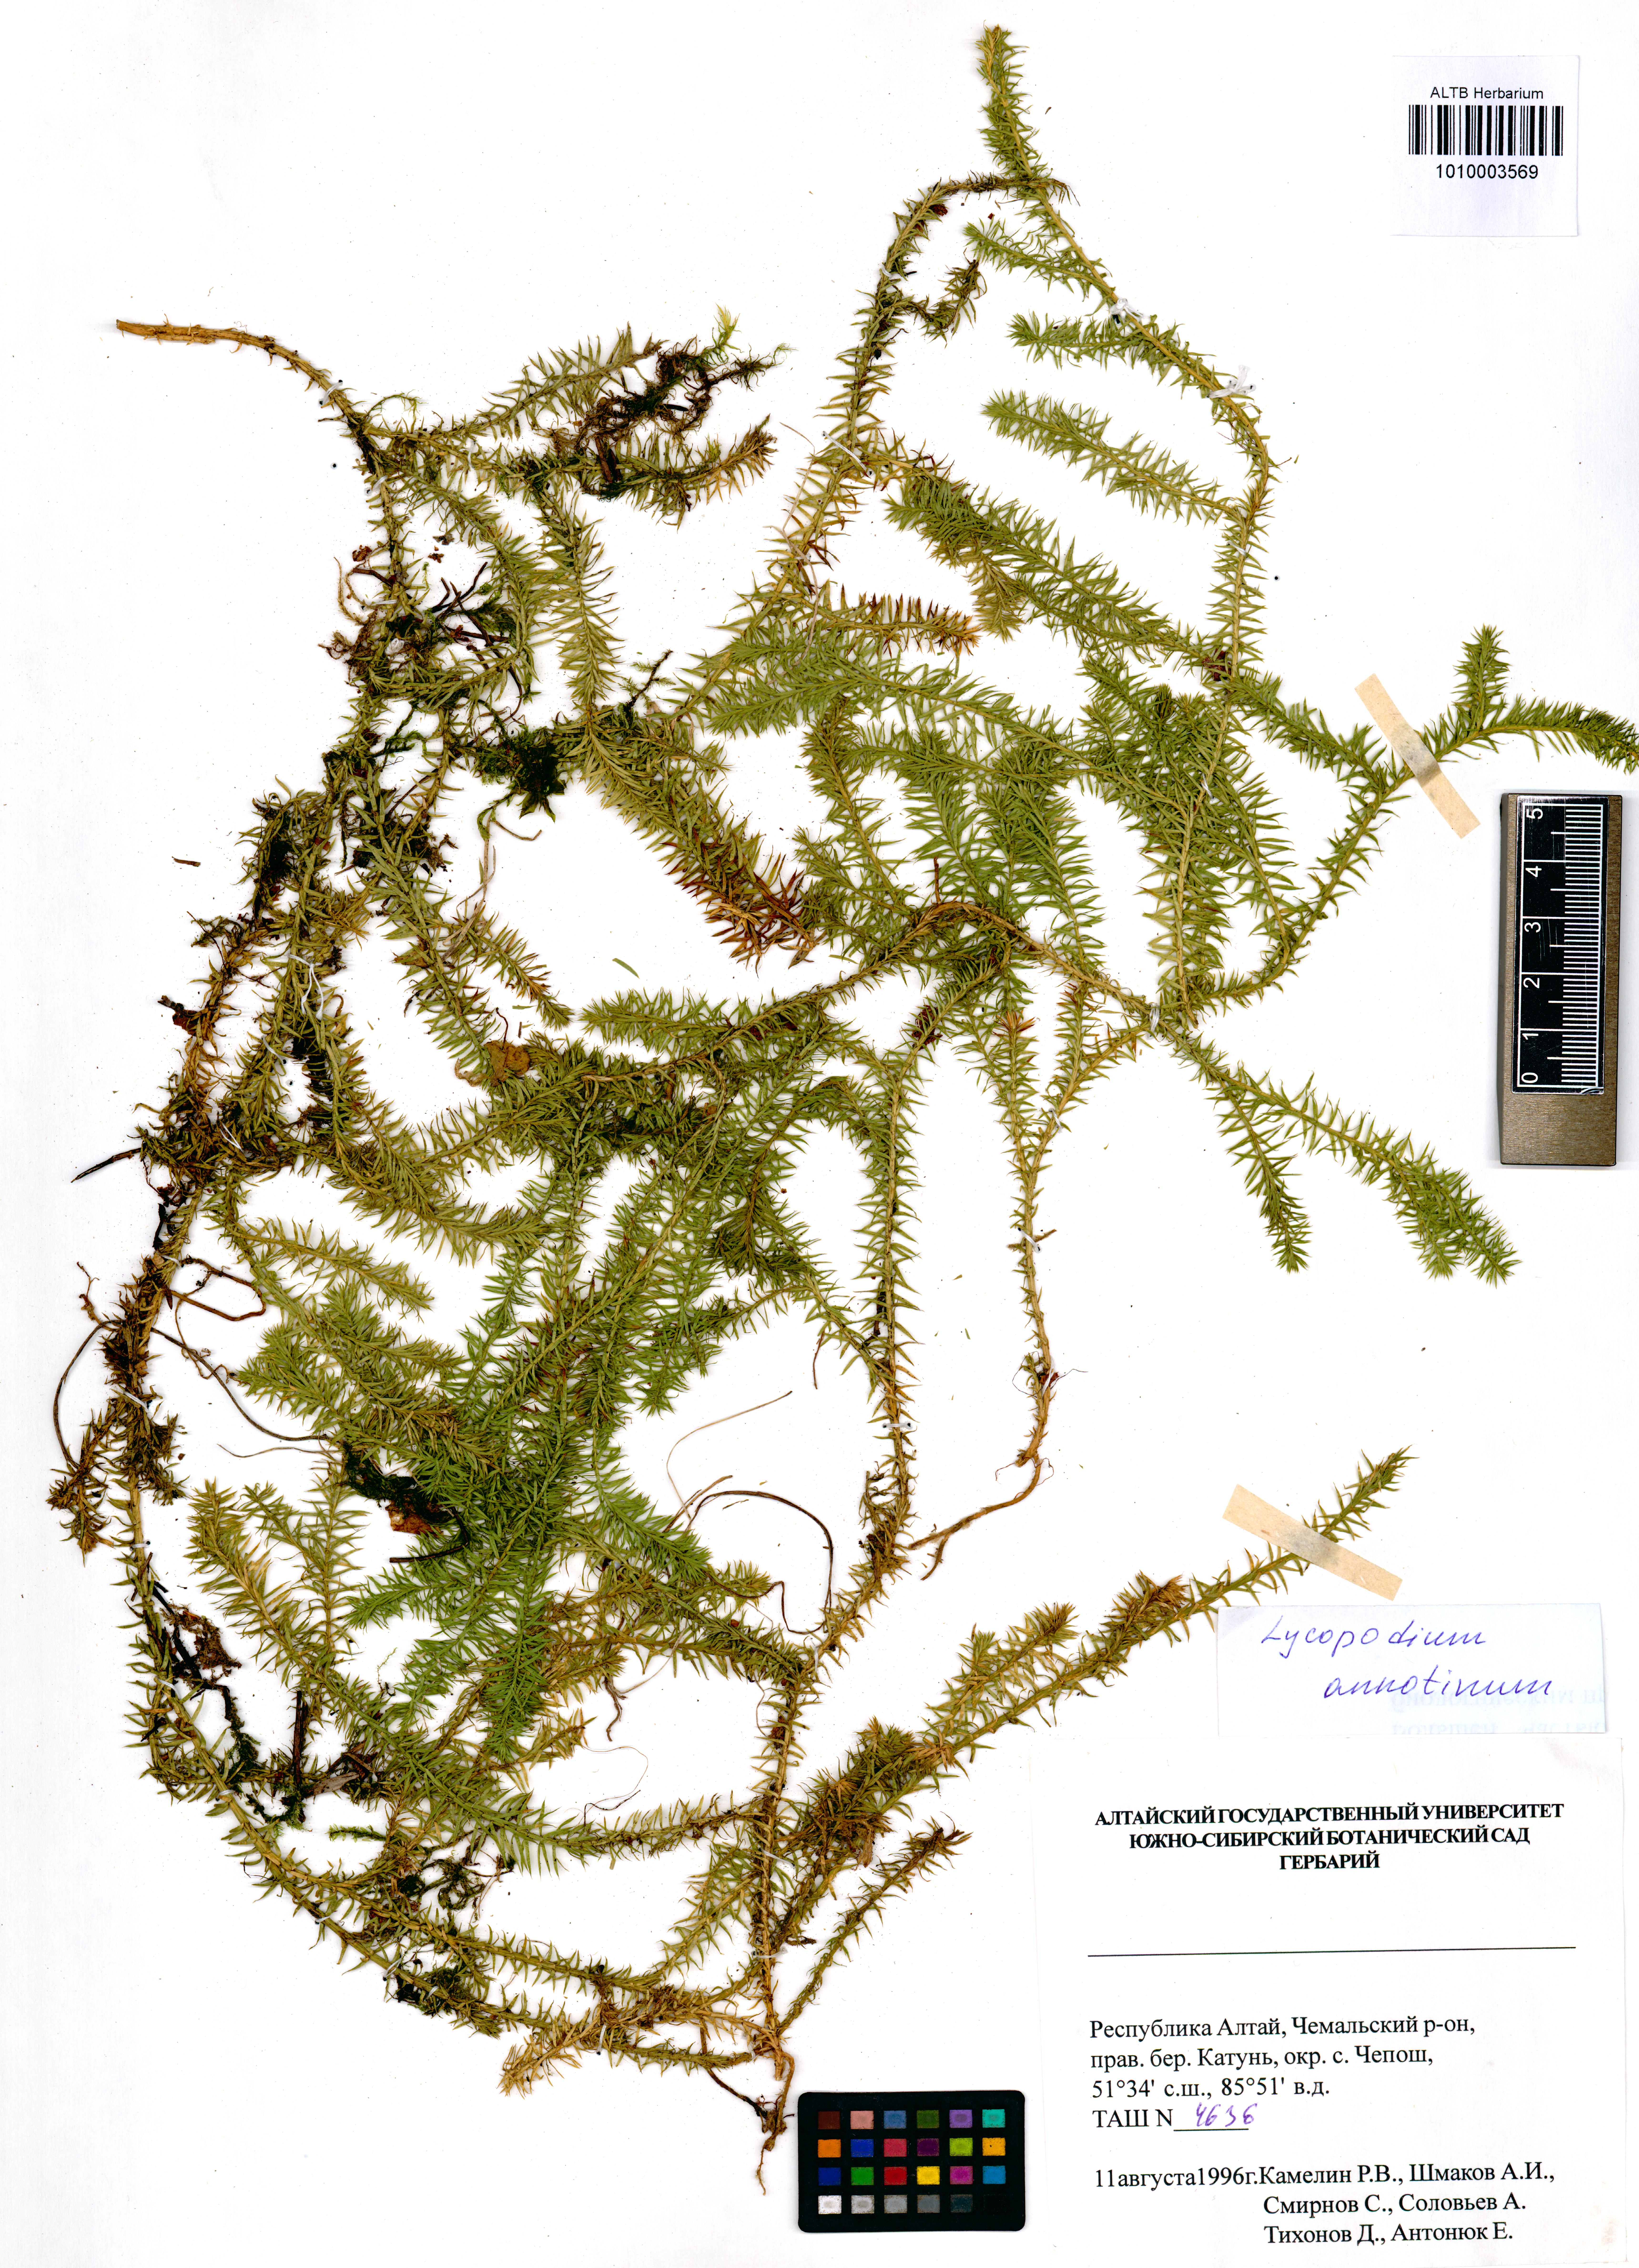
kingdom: Plantae
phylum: Tracheophyta
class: Lycopodiopsida
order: Lycopodiales
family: Lycopodiaceae
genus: Spinulum
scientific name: Spinulum annotinum
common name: Interrupted club-moss
